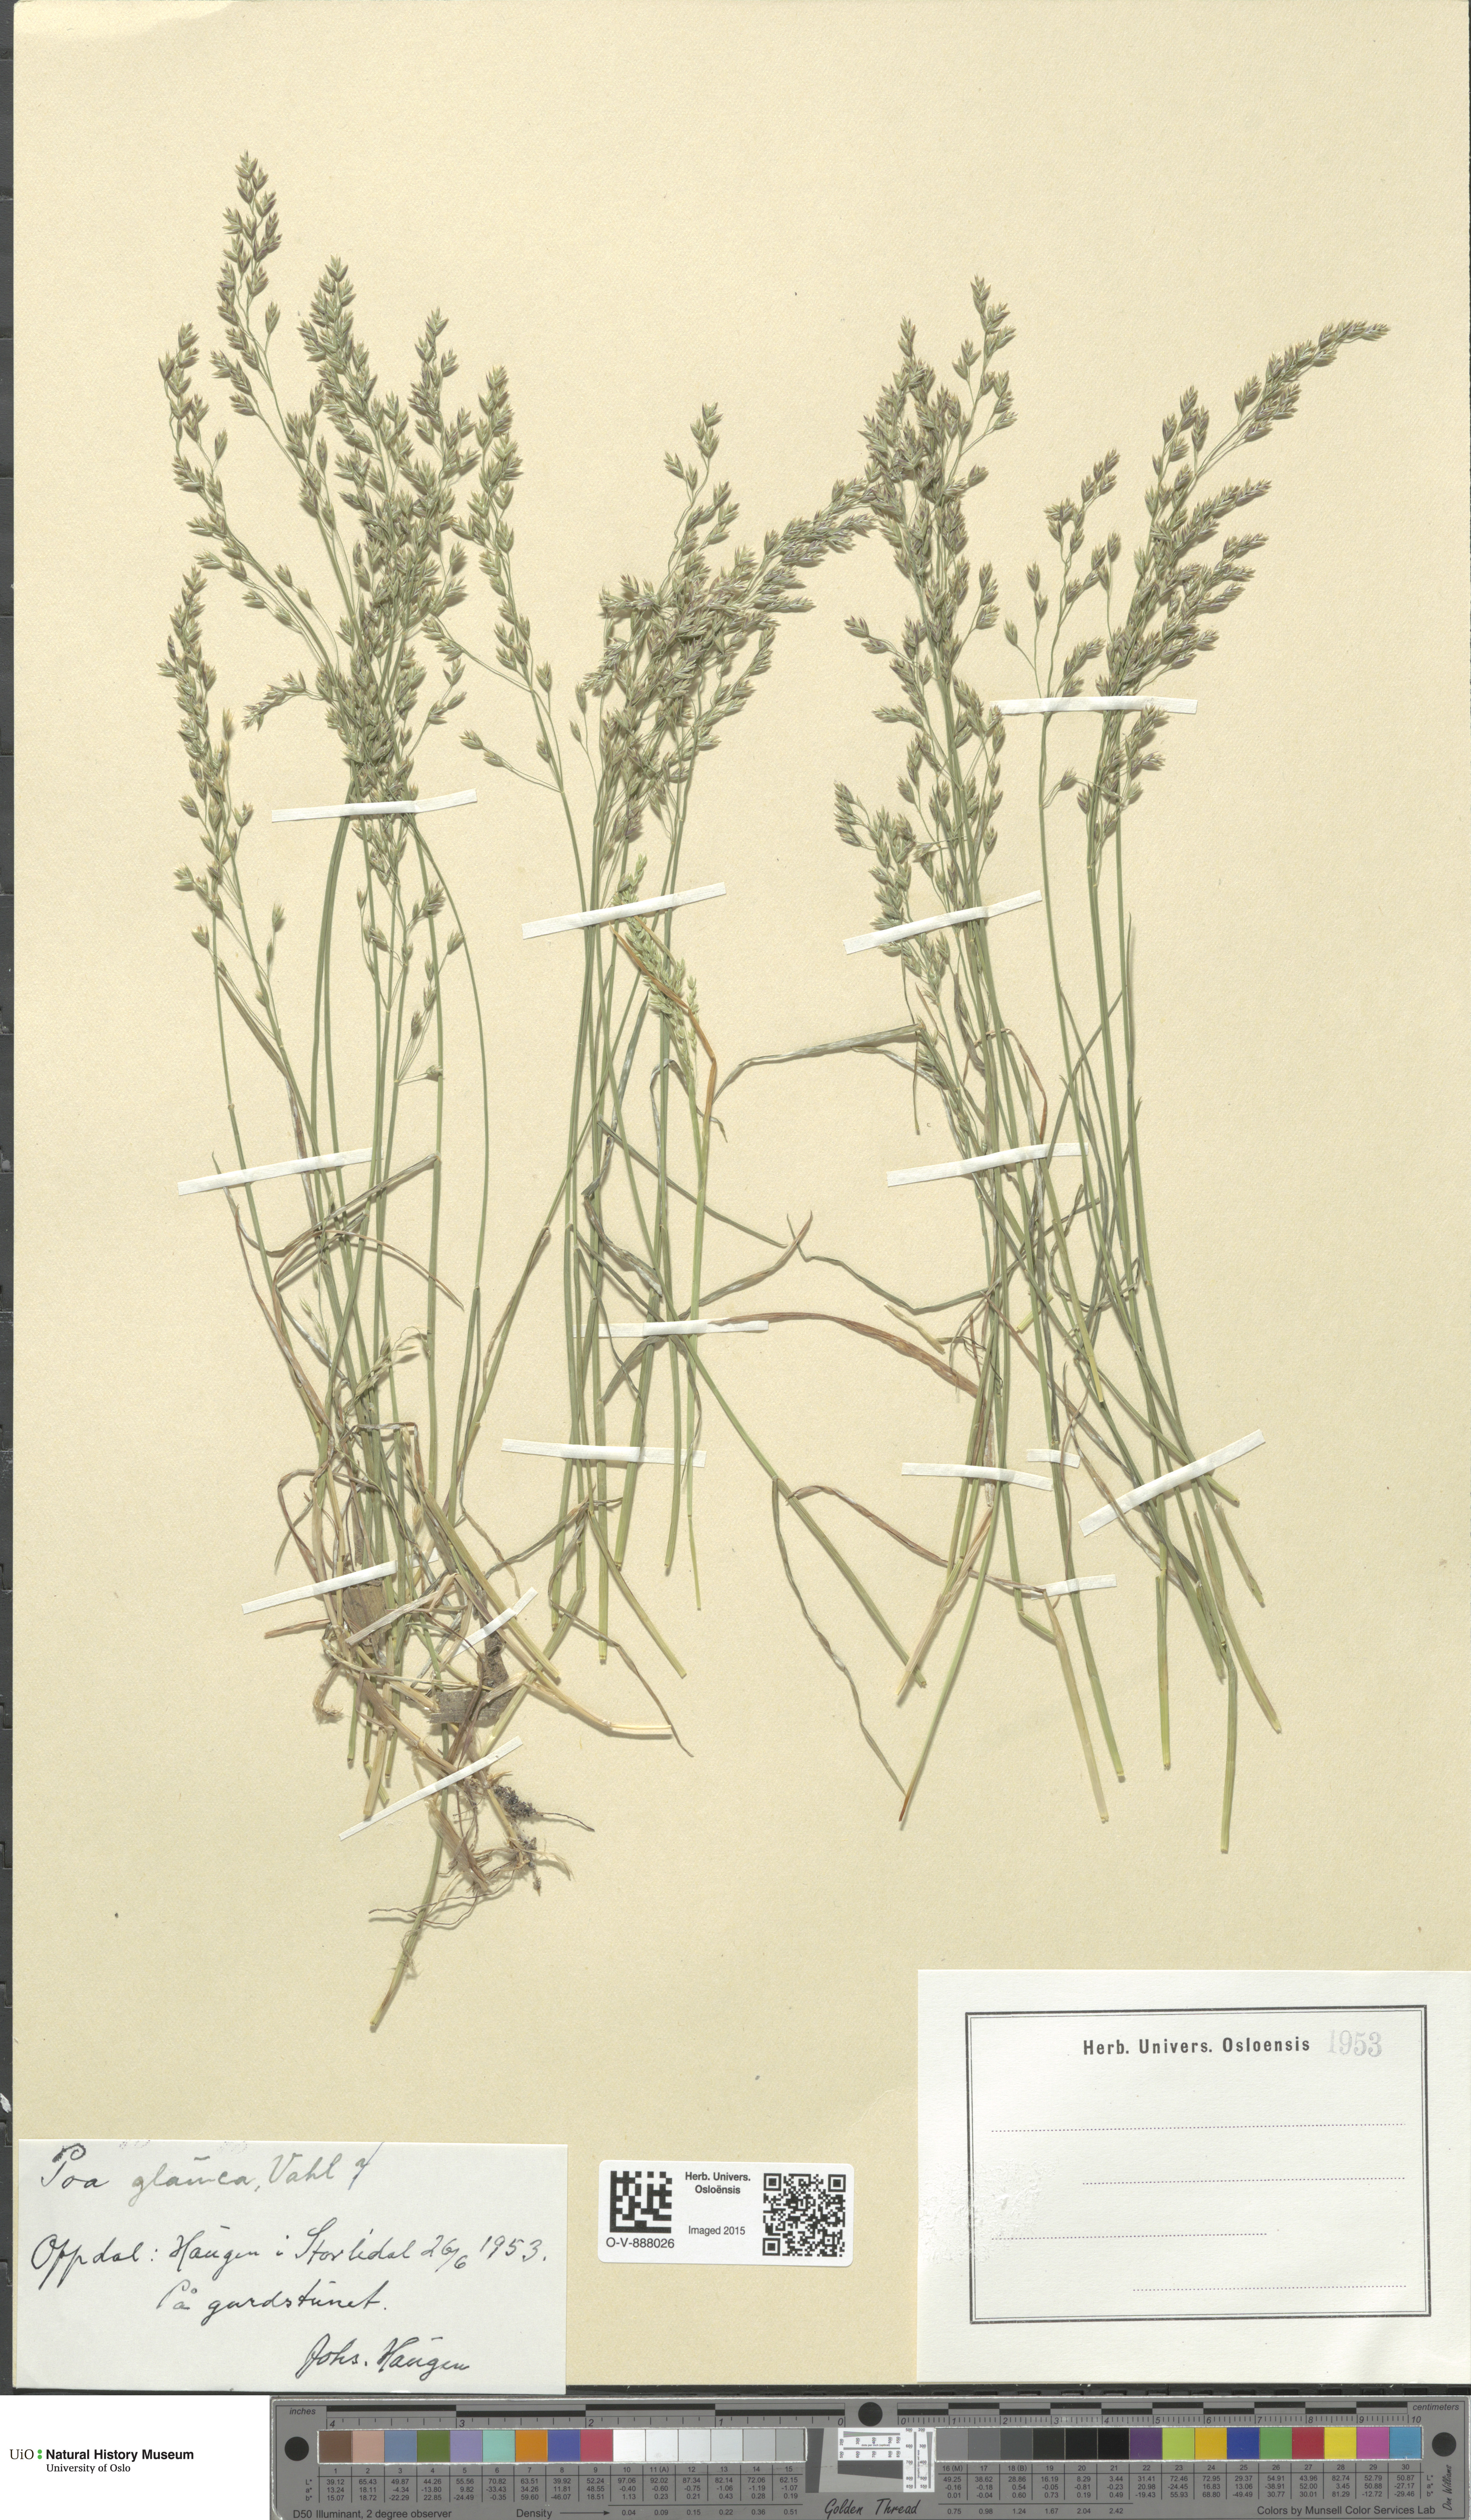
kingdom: Plantae
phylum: Tracheophyta
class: Liliopsida
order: Poales
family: Poaceae
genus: Poa
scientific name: Poa glauca
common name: Glaucous bluegrass
